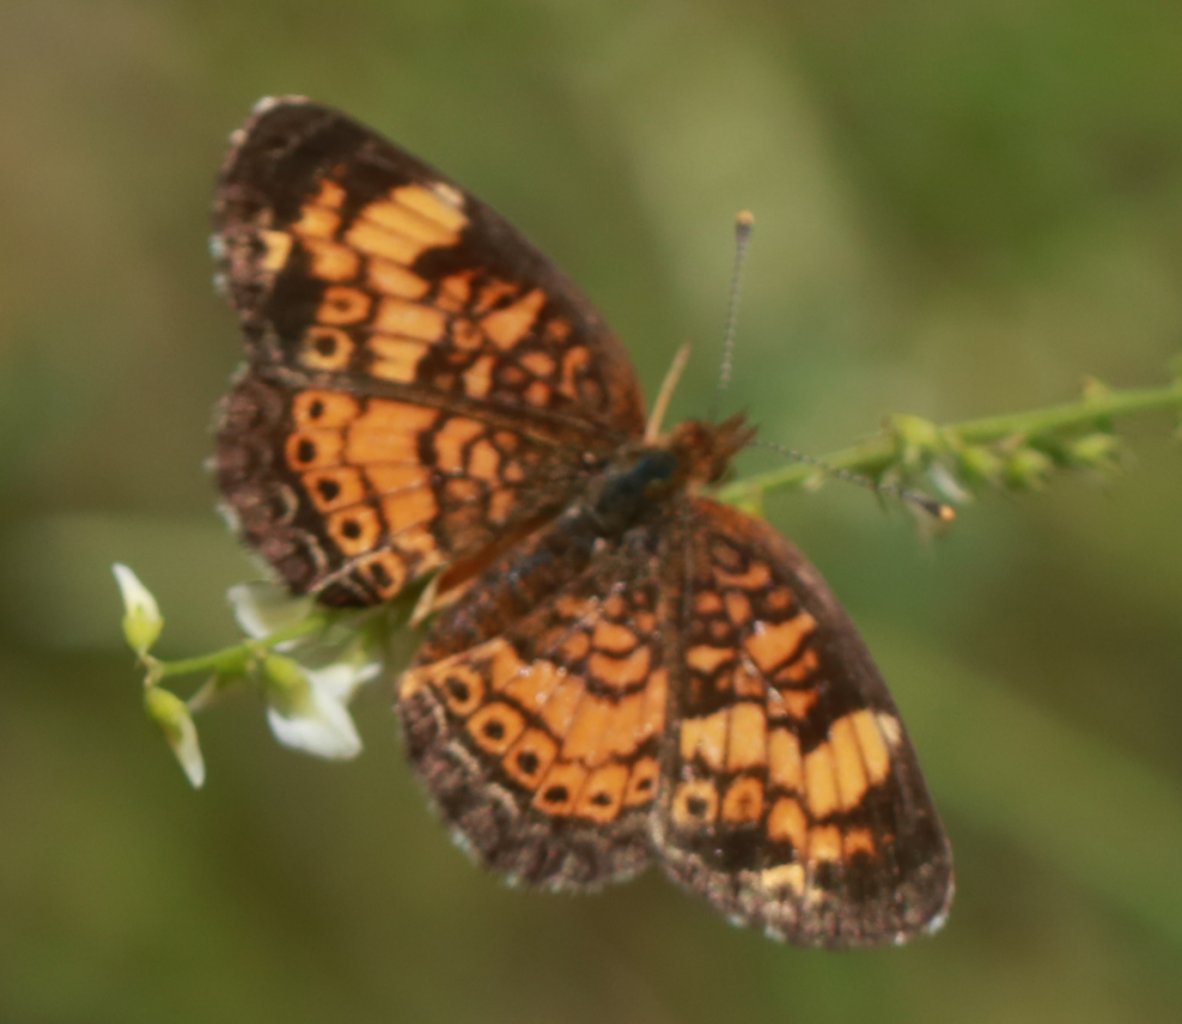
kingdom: Animalia
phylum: Arthropoda
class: Insecta
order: Lepidoptera
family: Nymphalidae
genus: Phyciodes
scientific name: Phyciodes tharos
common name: Northern Crescent
